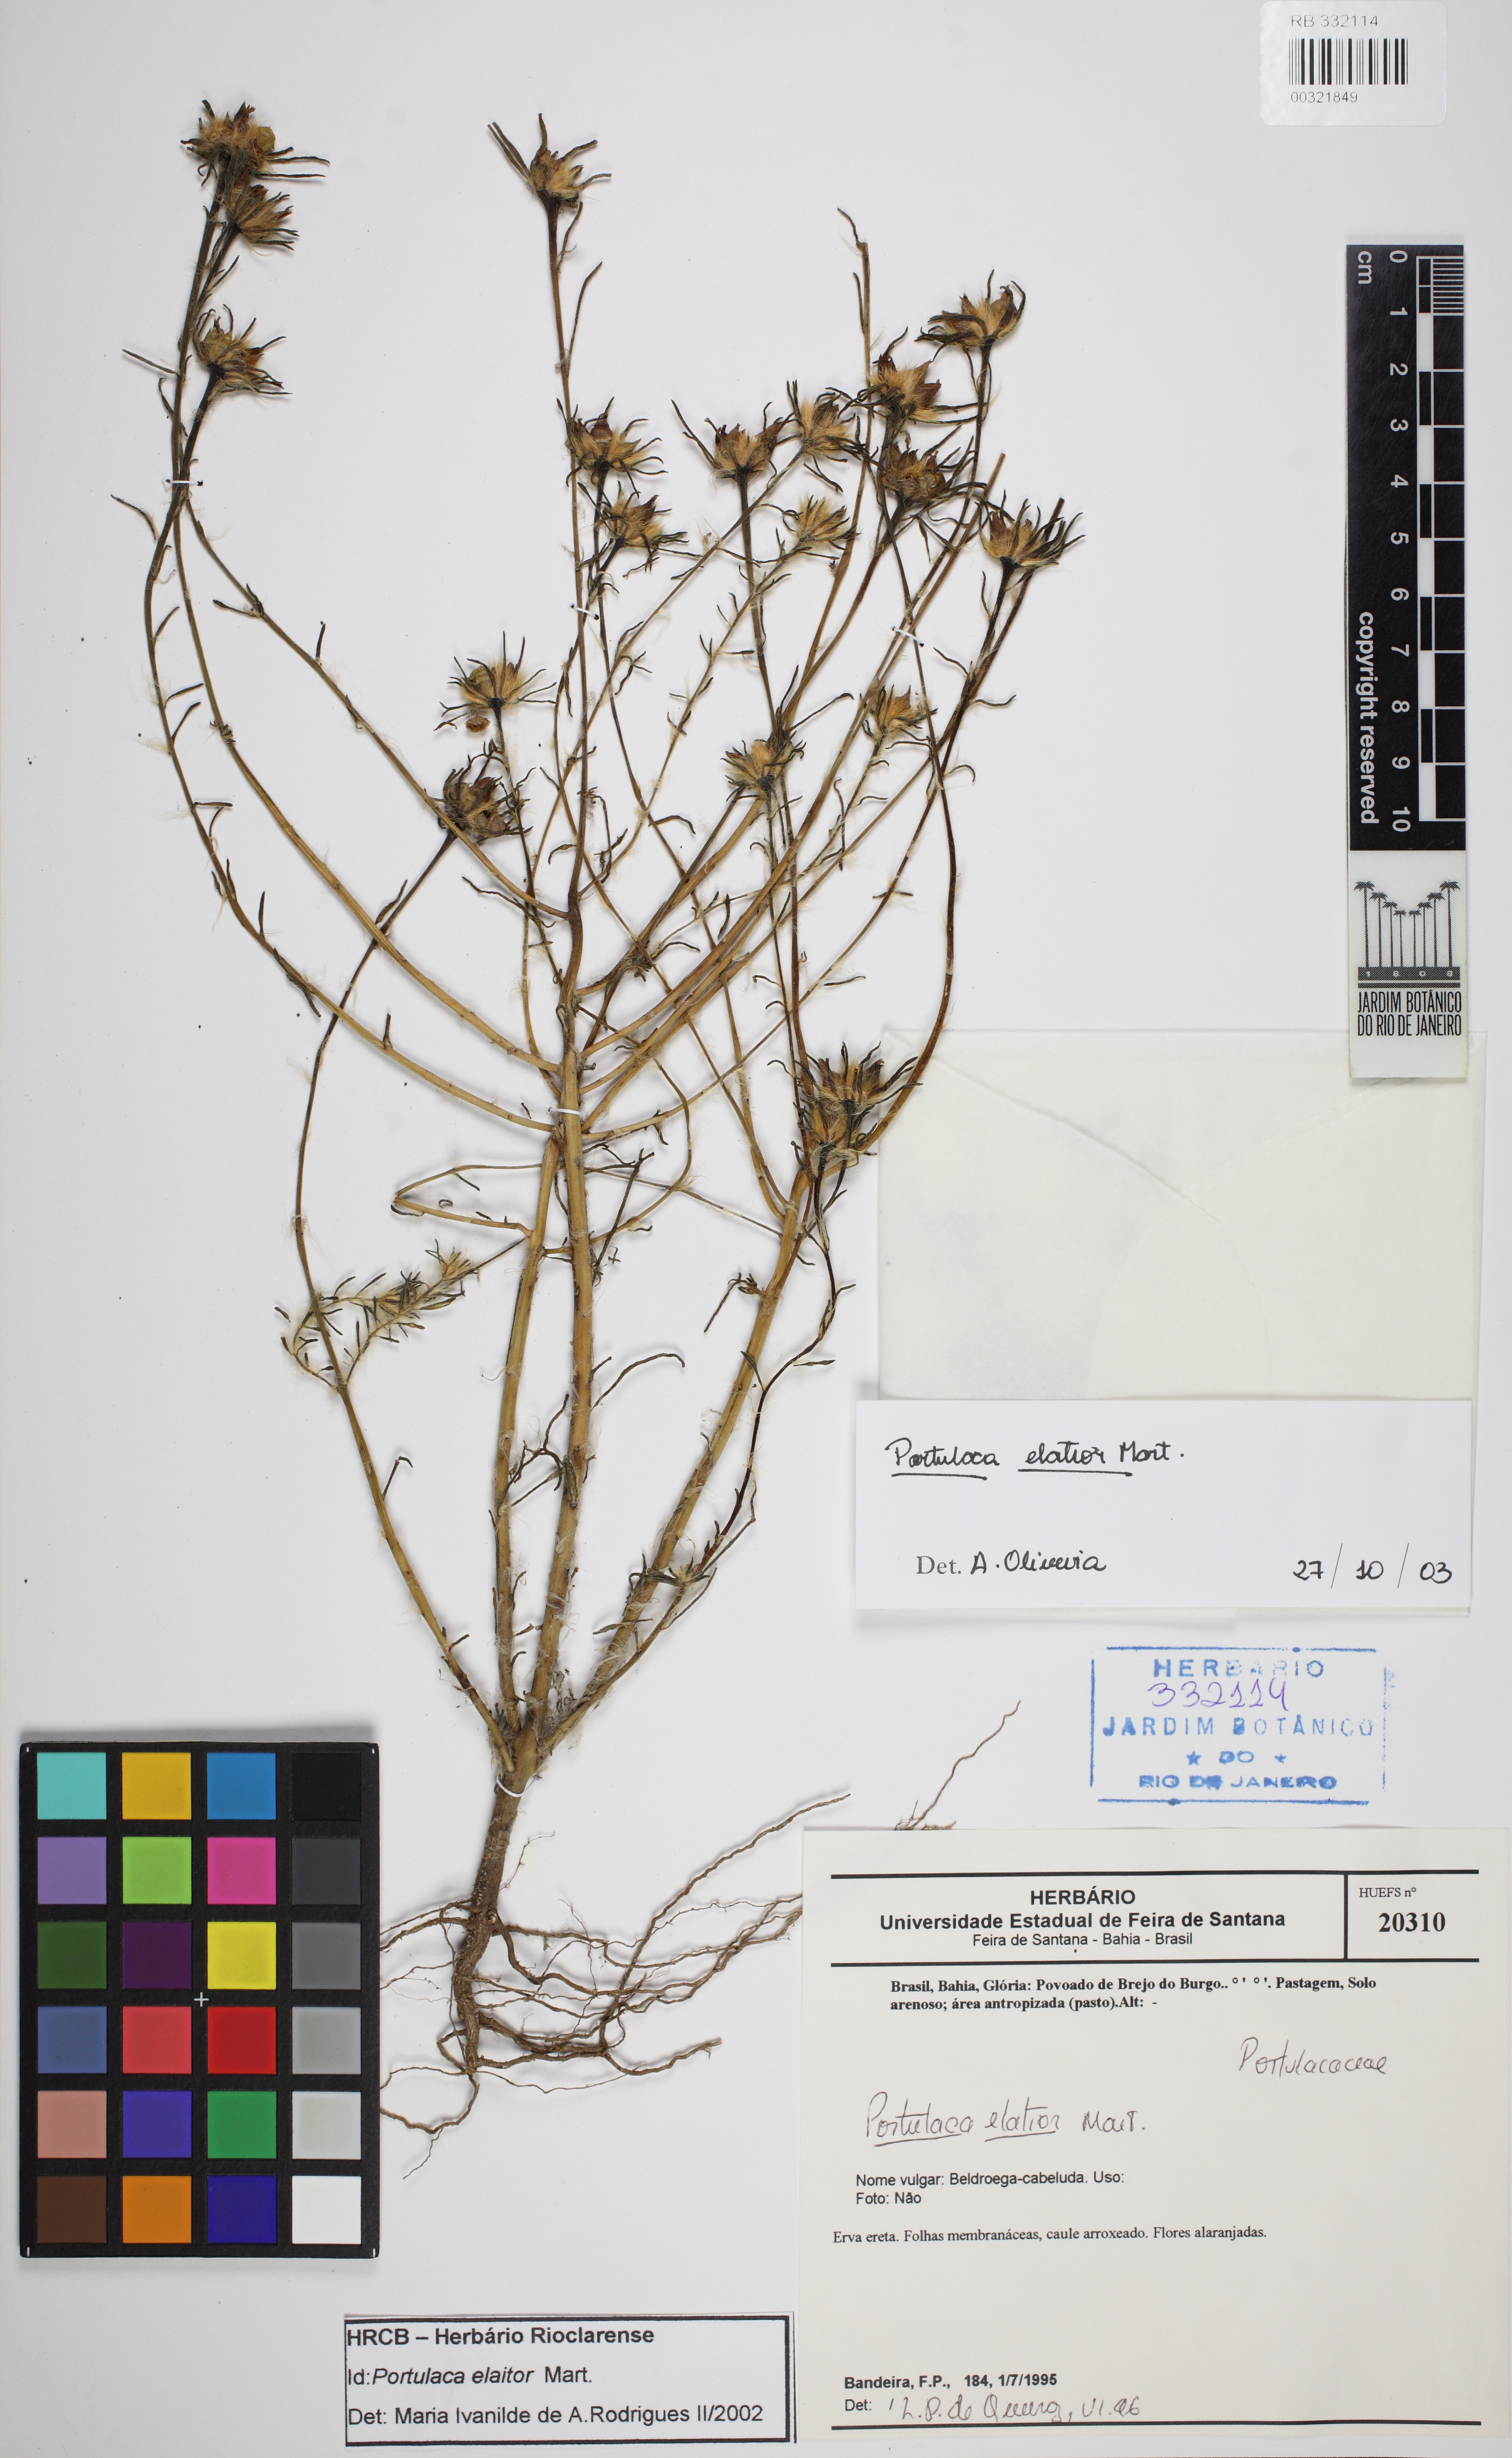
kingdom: Plantae
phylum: Tracheophyta
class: Magnoliopsida
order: Caryophyllales
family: Portulacaceae
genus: Portulaca
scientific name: Portulaca elatior
